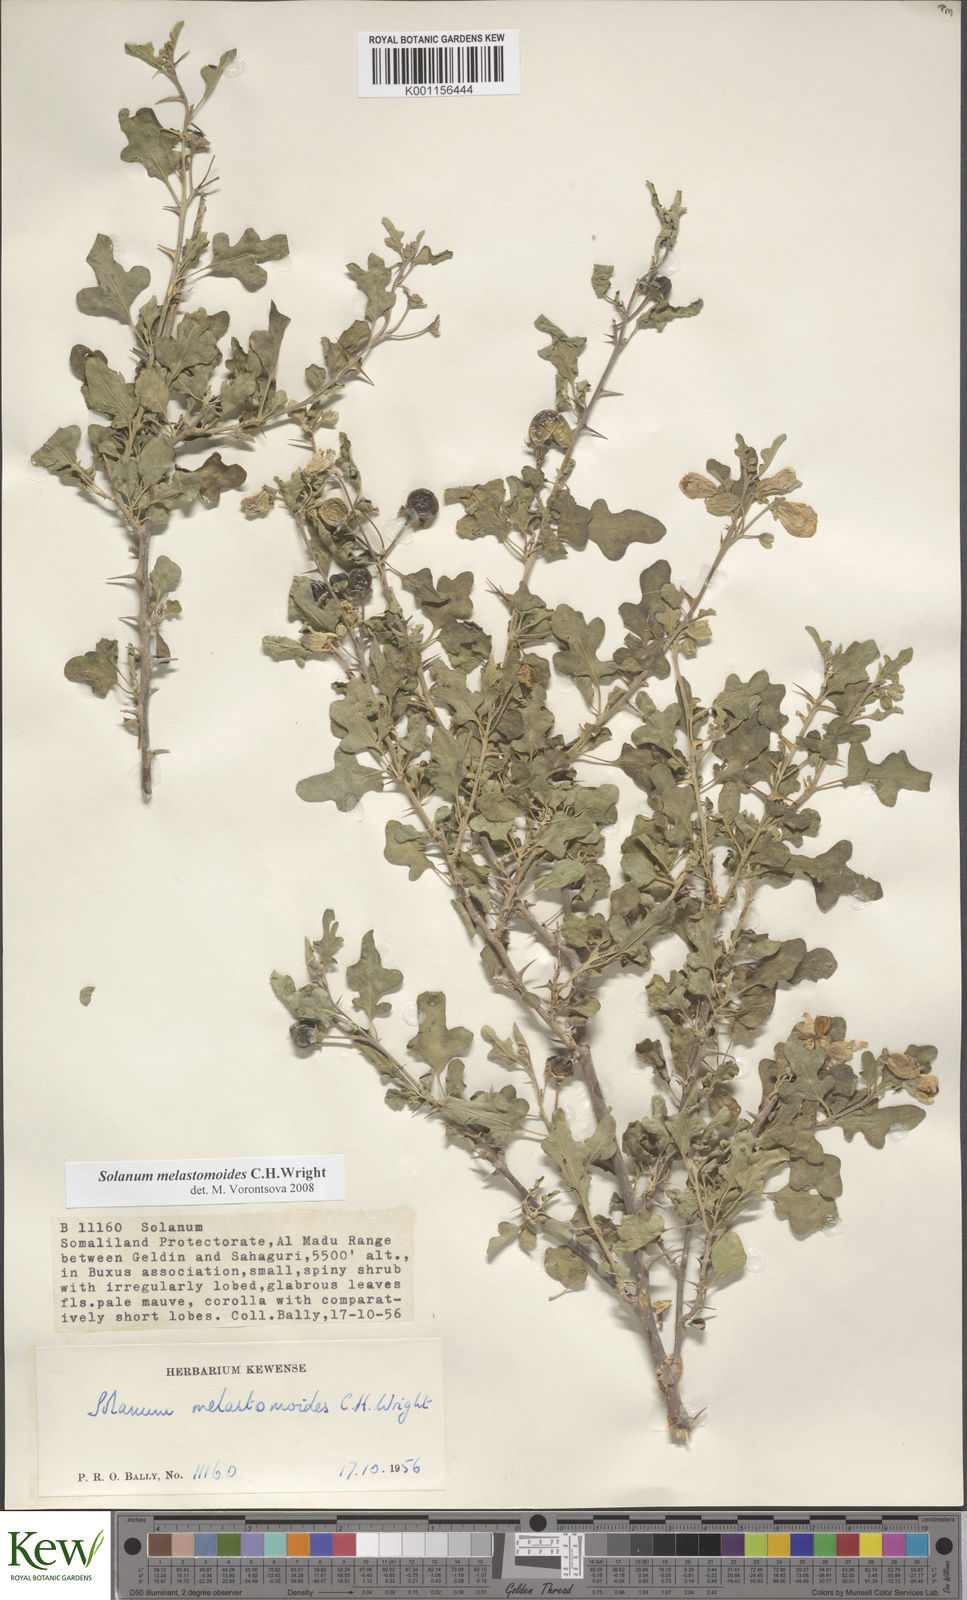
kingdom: Plantae
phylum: Tracheophyta
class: Magnoliopsida
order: Solanales
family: Solanaceae
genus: Solanum
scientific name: Solanum melastomoides
